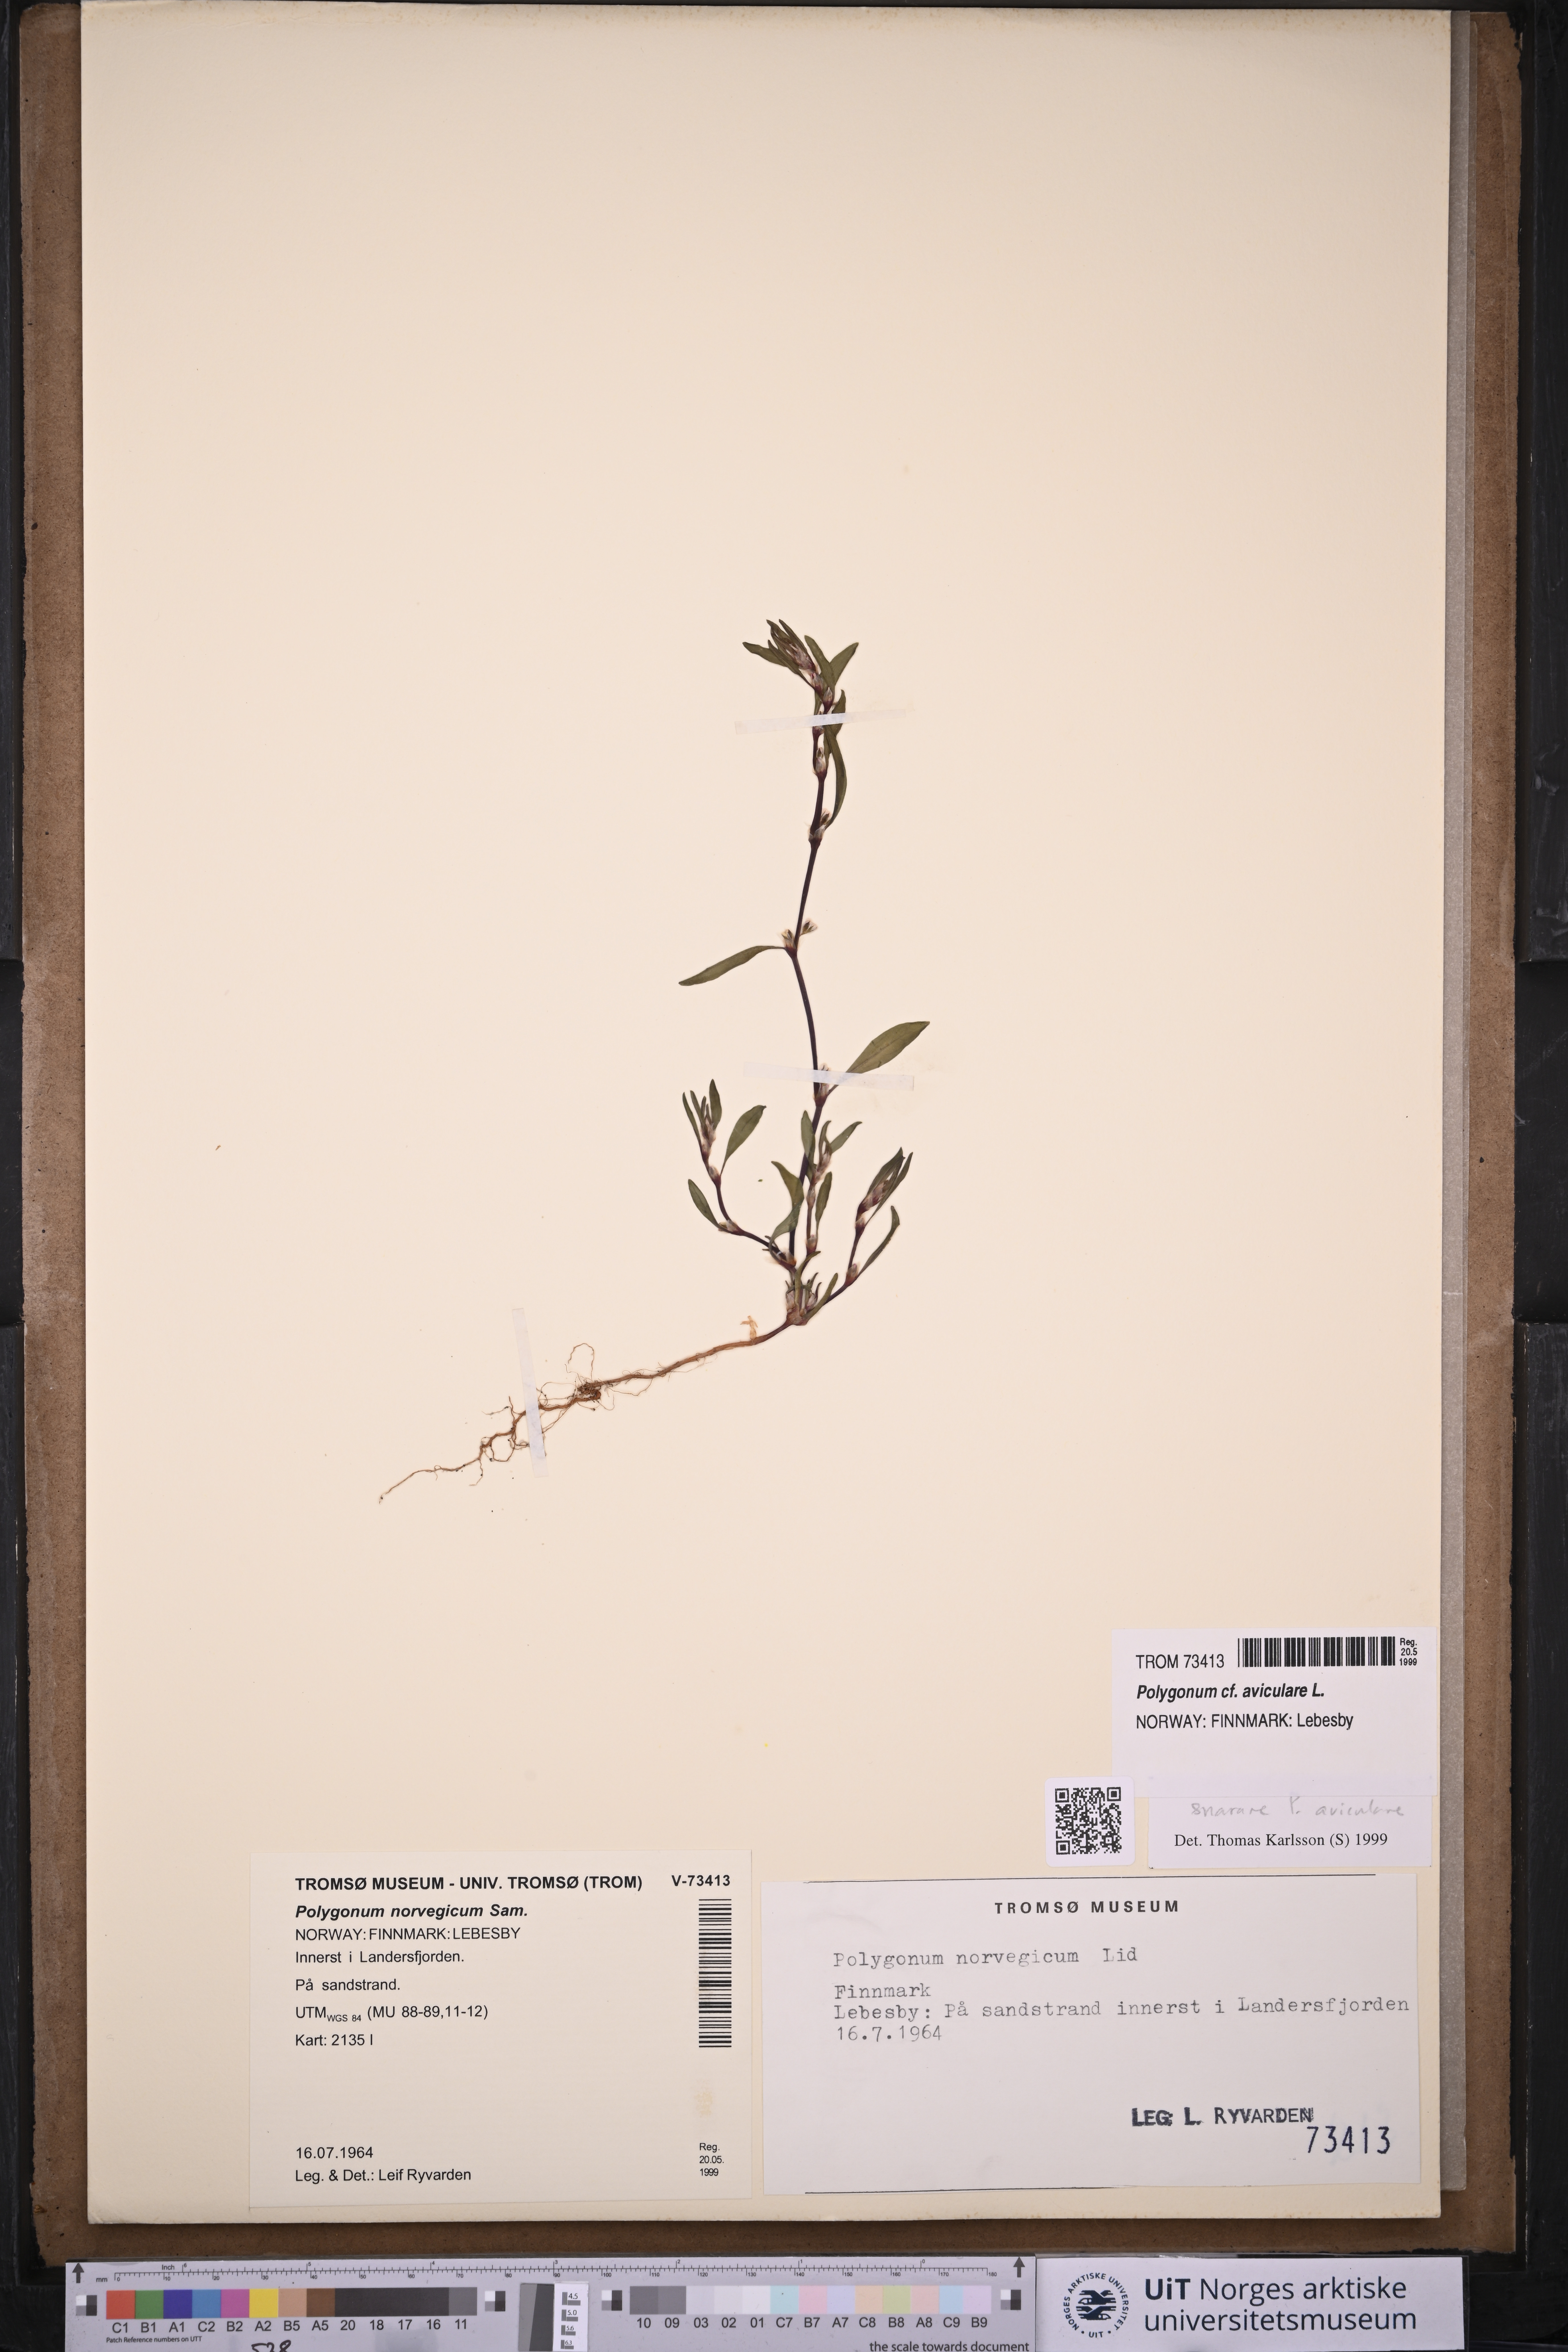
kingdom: Plantae
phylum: Tracheophyta
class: Magnoliopsida
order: Caryophyllales
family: Polygonaceae
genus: Polygonum
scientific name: Polygonum aviculare
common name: Prostrate knotweed
